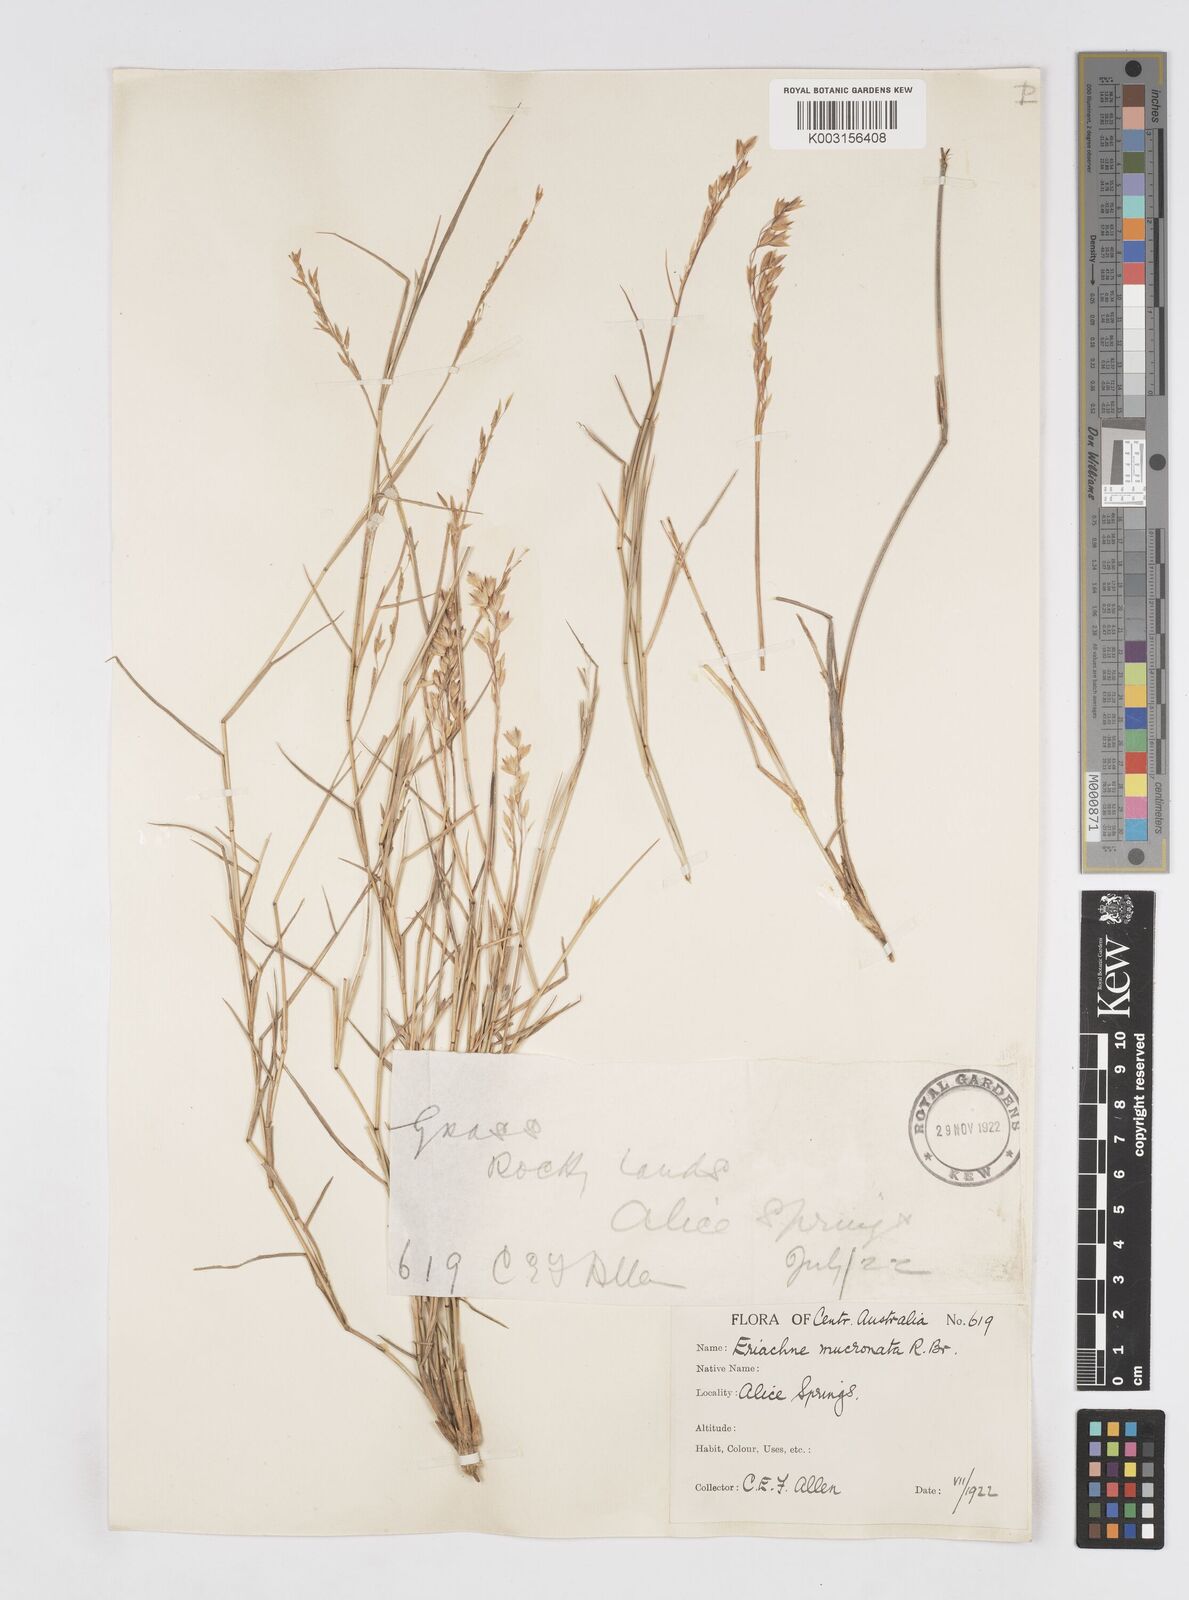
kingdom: Plantae
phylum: Tracheophyta
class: Liliopsida
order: Poales
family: Poaceae
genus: Eriachne
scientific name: Eriachne mucronata
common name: Mountain wanderrie grass
